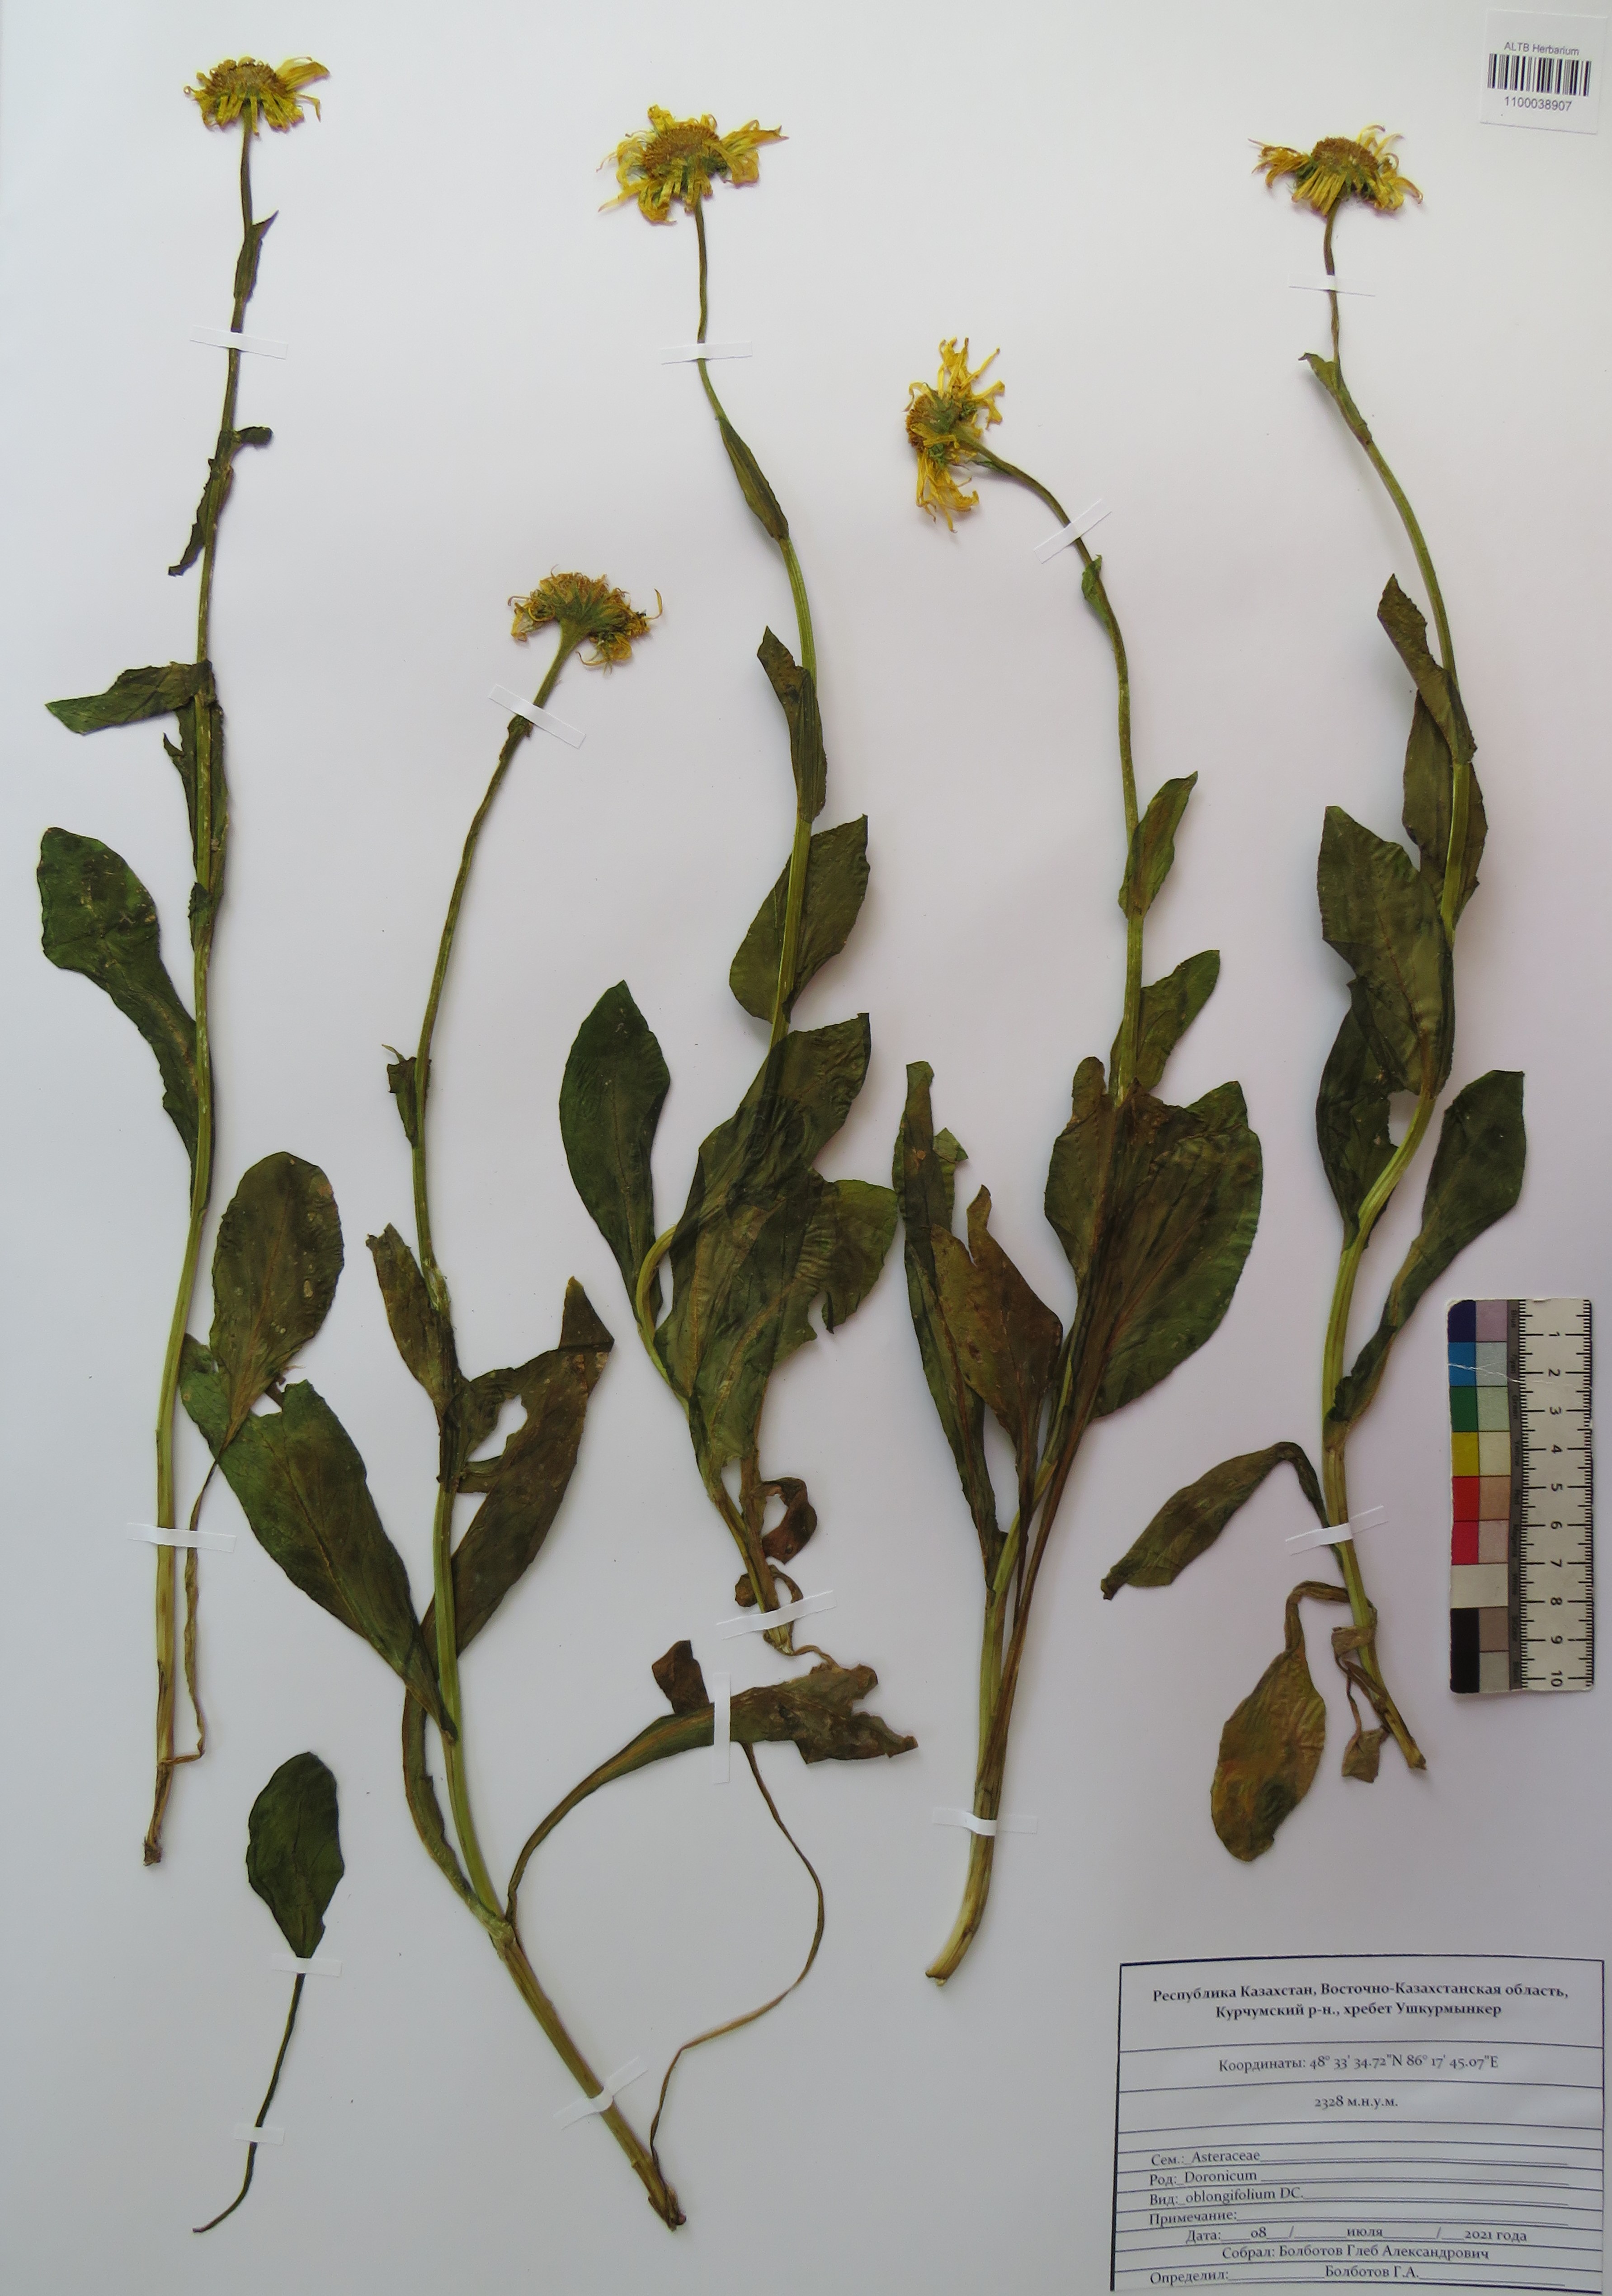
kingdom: Plantae
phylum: Tracheophyta
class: Magnoliopsida
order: Asterales
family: Asteraceae
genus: Doronicum
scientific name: Doronicum oblongifolium
